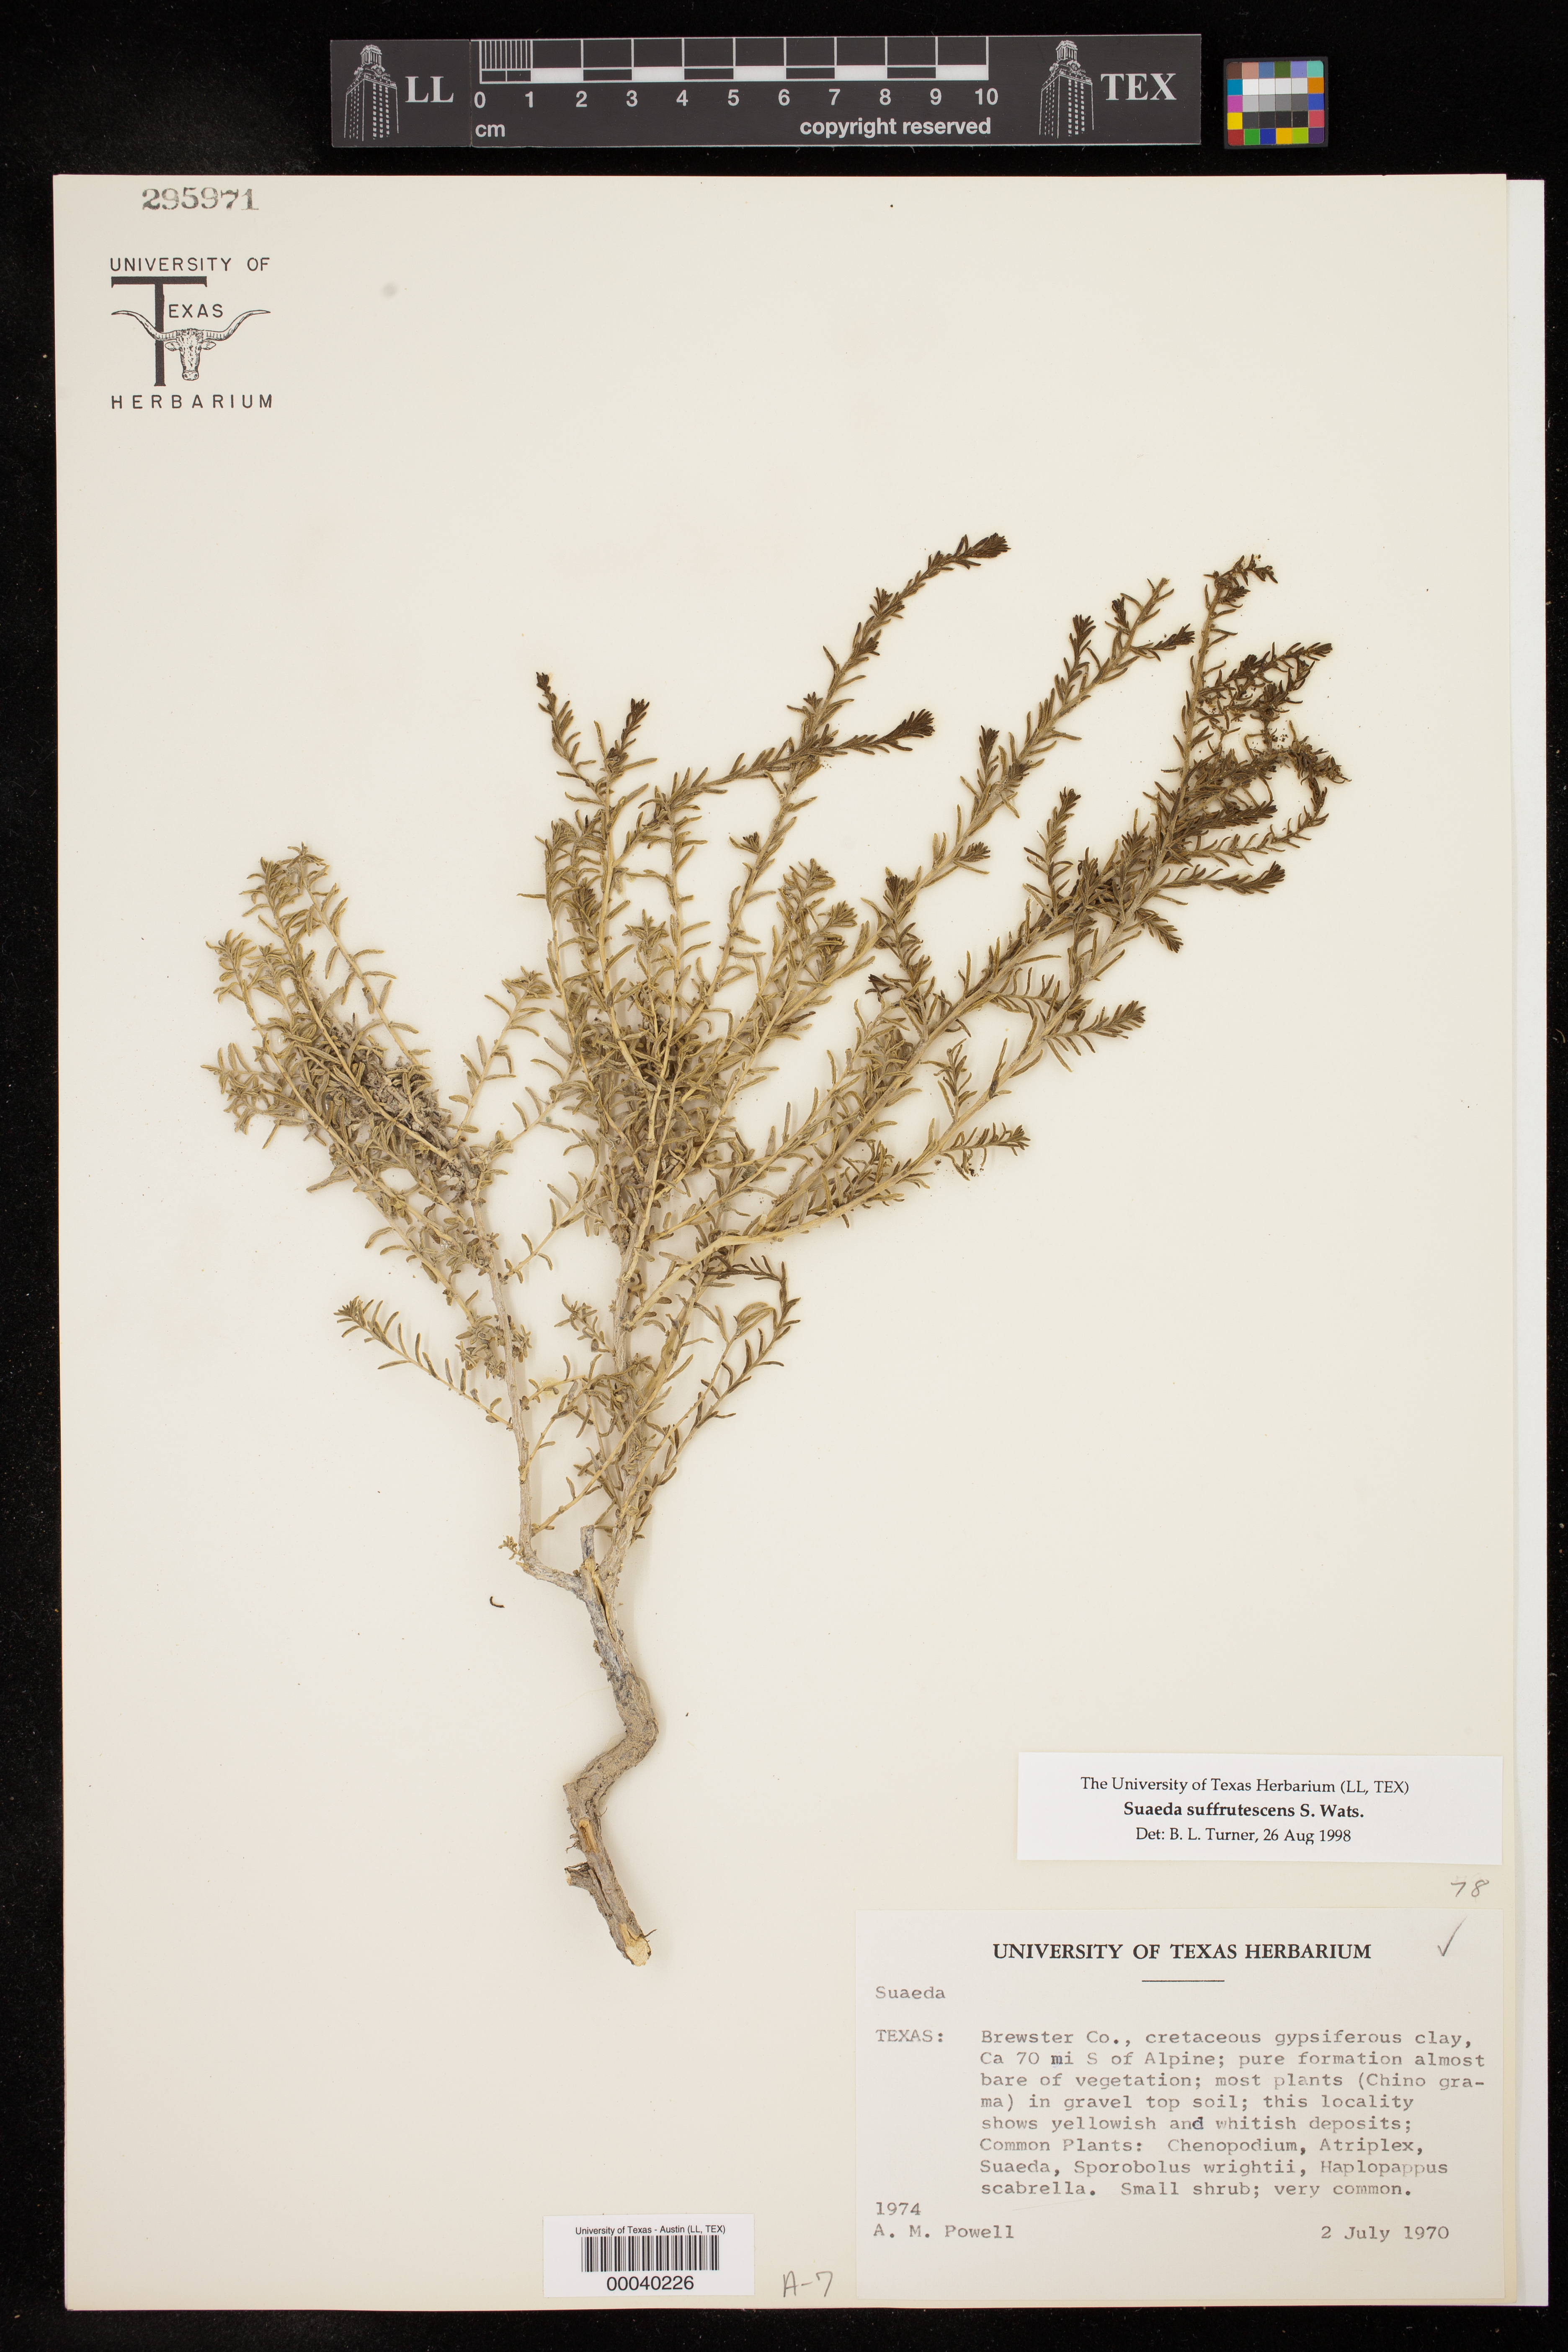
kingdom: Plantae
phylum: Tracheophyta
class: Magnoliopsida
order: Caryophyllales
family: Amaranthaceae
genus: Suaeda
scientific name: Suaeda suffrutescens
